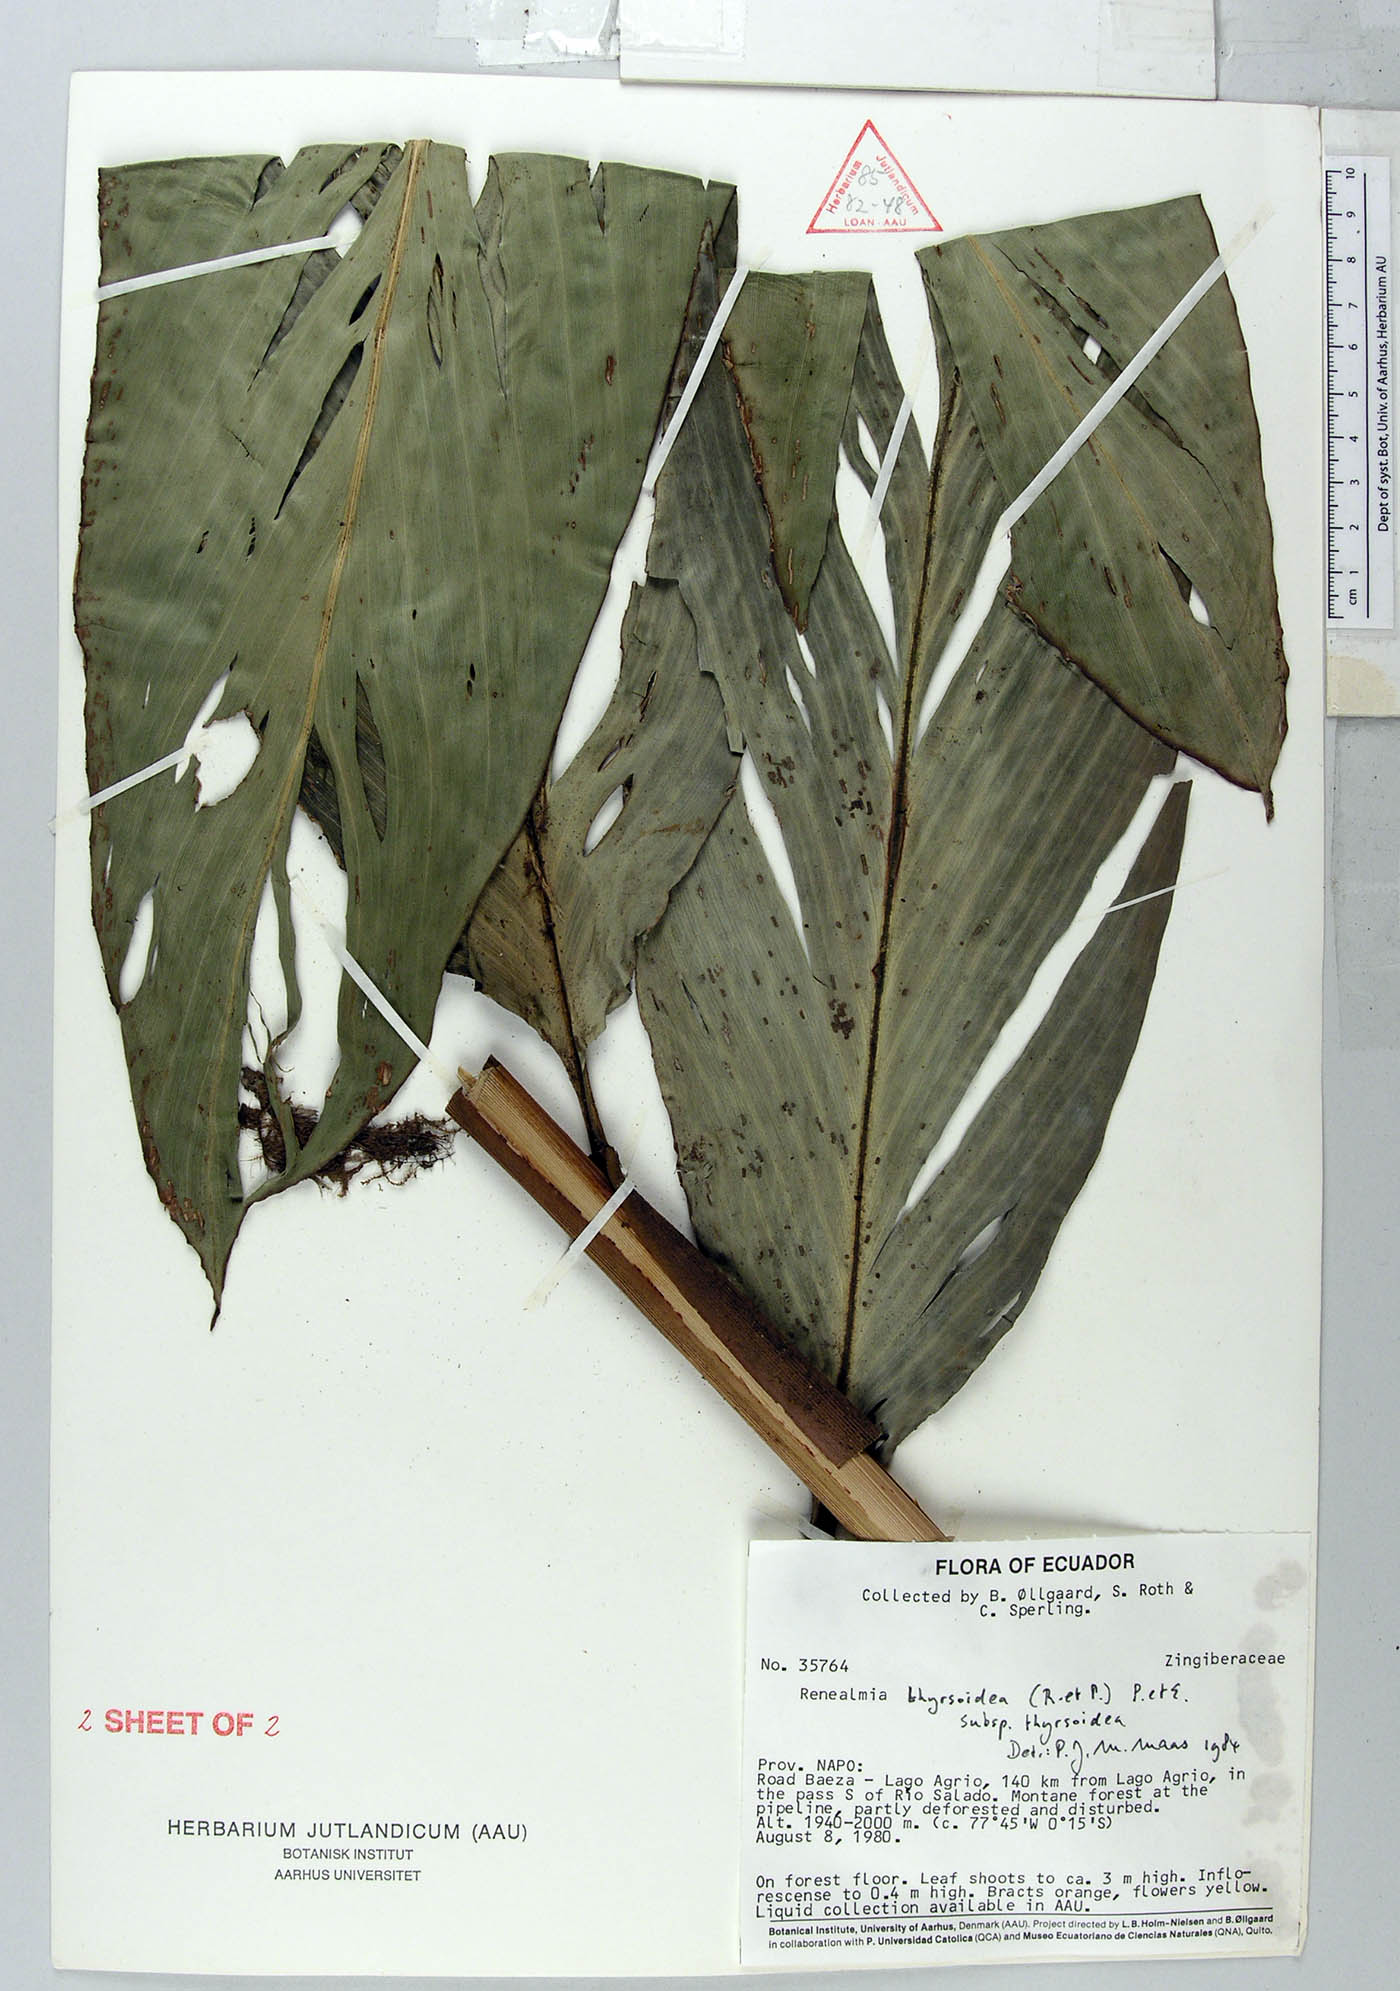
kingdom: Plantae
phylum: Tracheophyta
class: Liliopsida
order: Zingiberales
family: Zingiberaceae
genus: Renealmia
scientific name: Renealmia thyrsoidea
